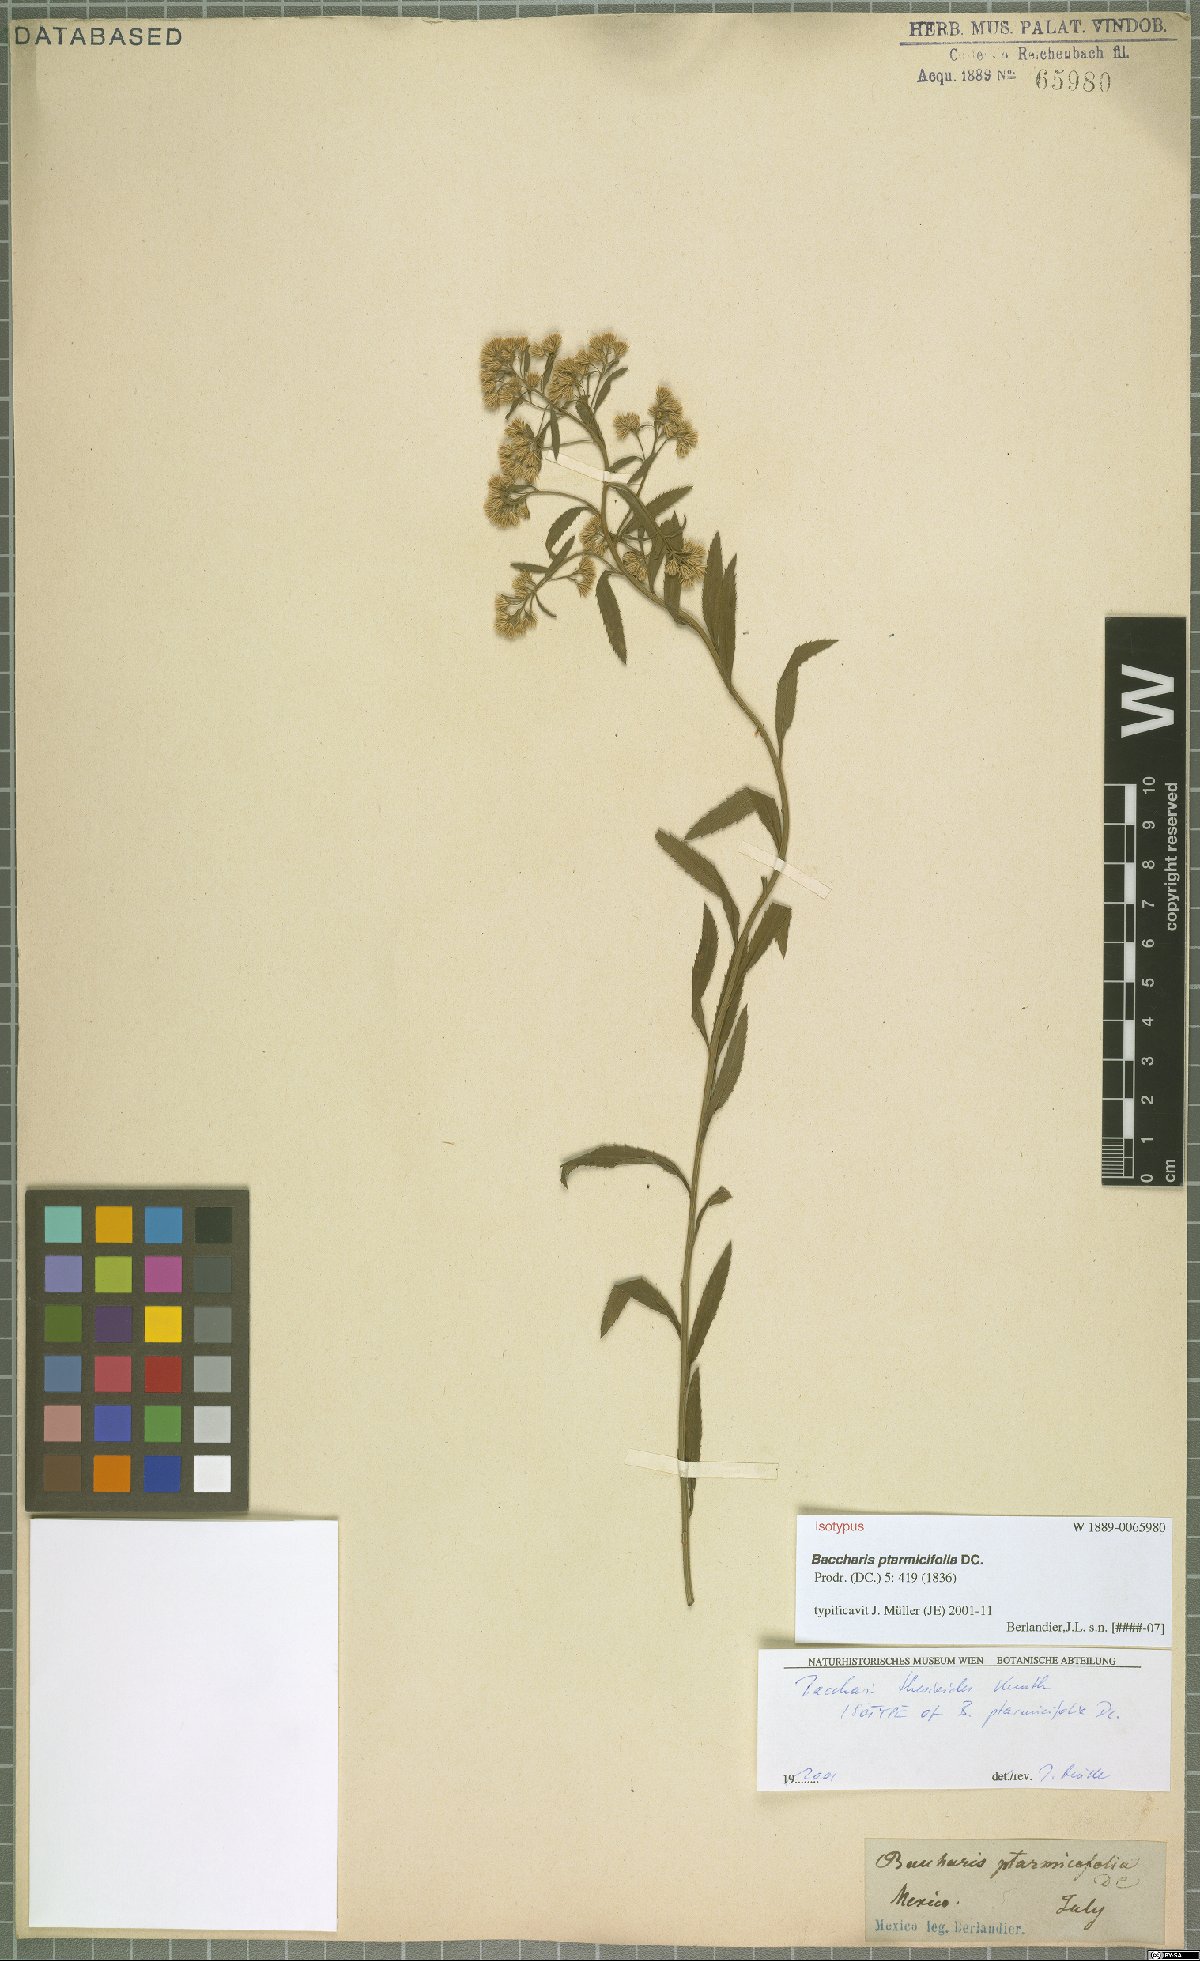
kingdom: Plantae
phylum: Tracheophyta
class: Magnoliopsida
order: Asterales
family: Asteraceae
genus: Baccharis
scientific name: Baccharis ptarmicifolia
